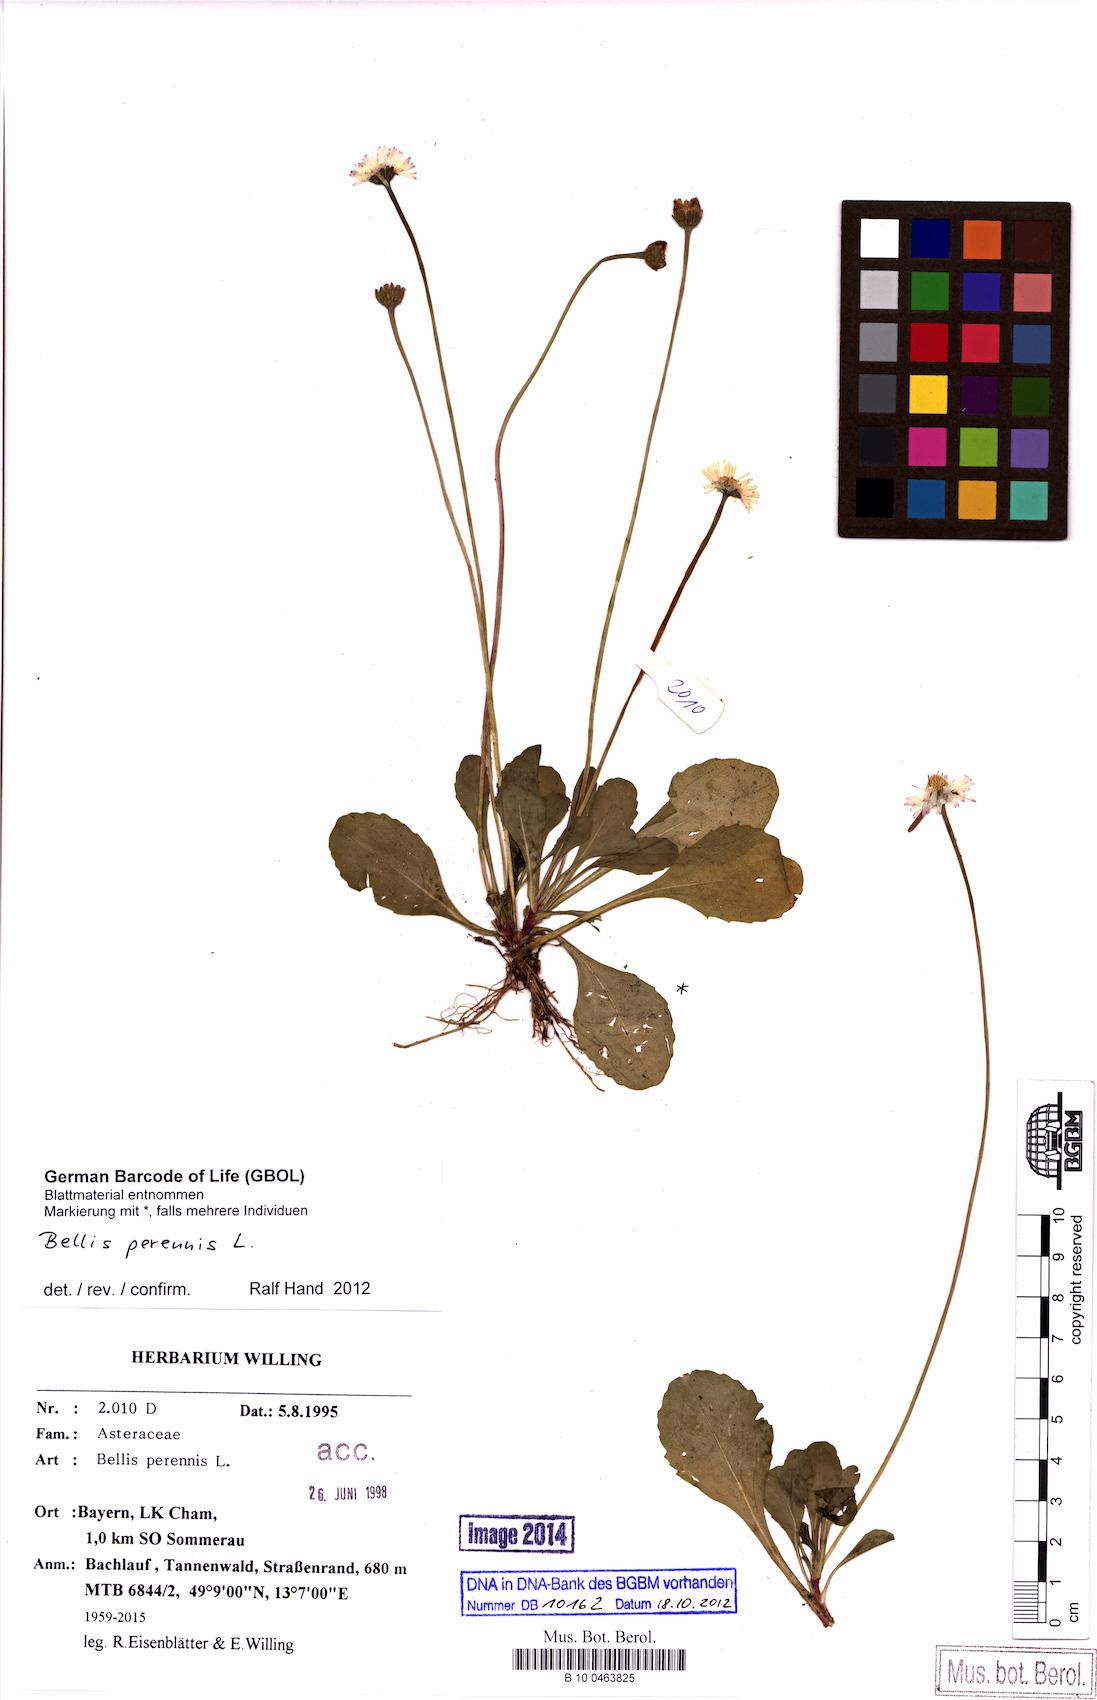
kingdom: Plantae
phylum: Tracheophyta
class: Magnoliopsida
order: Asterales
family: Asteraceae
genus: Bellis
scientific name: Bellis perennis
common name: Lawndaisy
